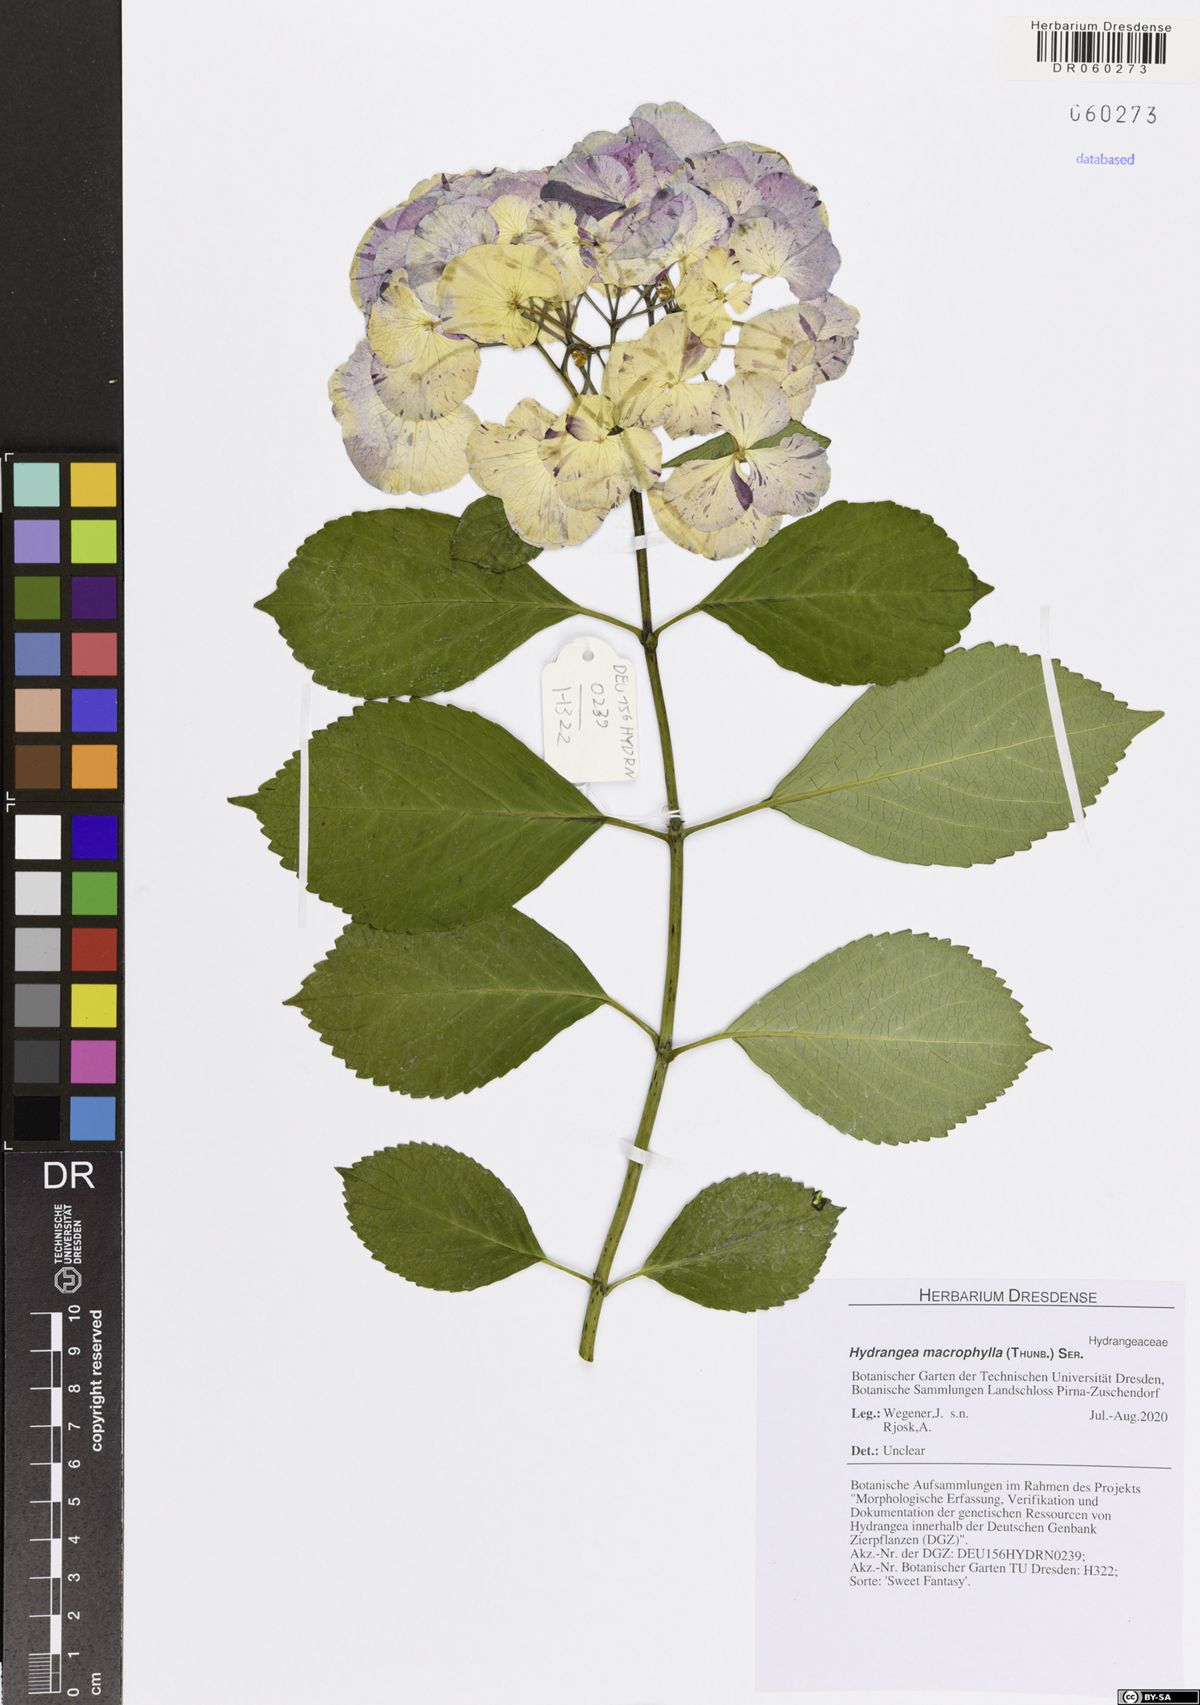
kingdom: Plantae
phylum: Tracheophyta
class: Magnoliopsida
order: Cornales
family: Hydrangeaceae
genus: Hydrangea
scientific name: Hydrangea macrophylla
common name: Hydrangea
